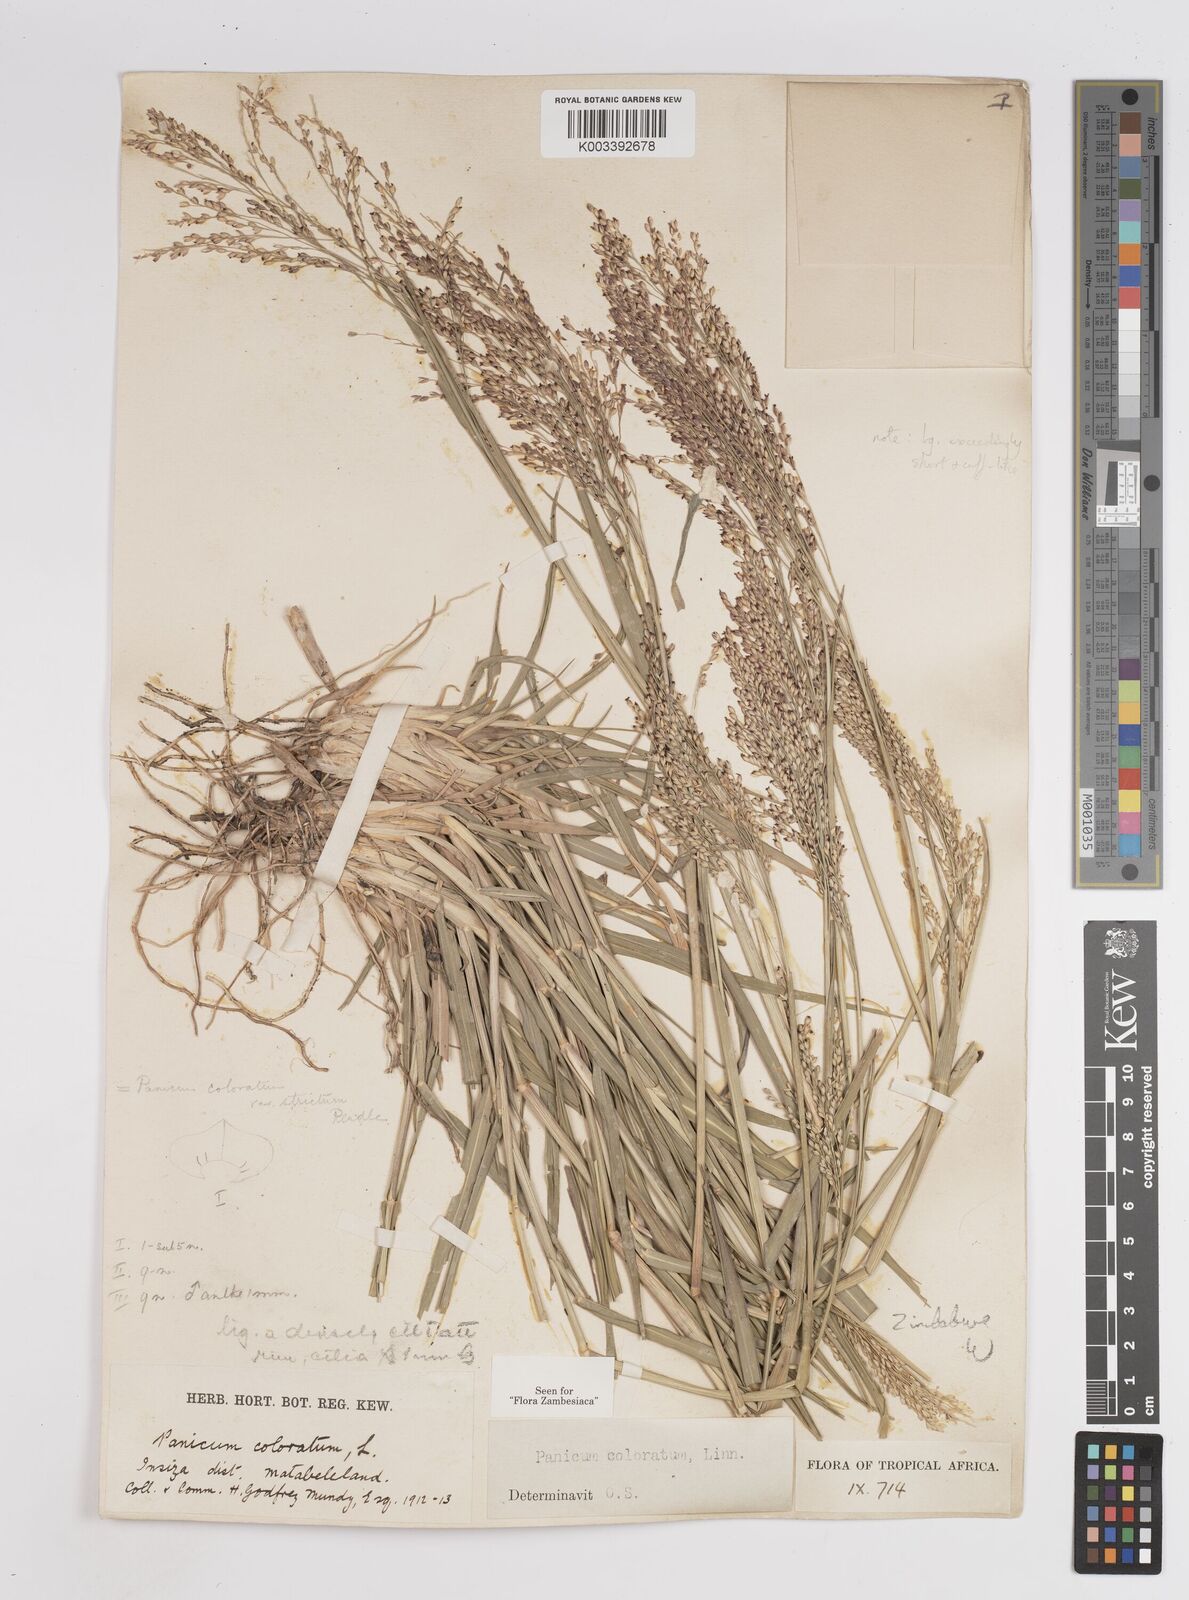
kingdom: Plantae
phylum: Tracheophyta
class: Liliopsida
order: Poales
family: Poaceae
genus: Panicum
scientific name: Panicum
